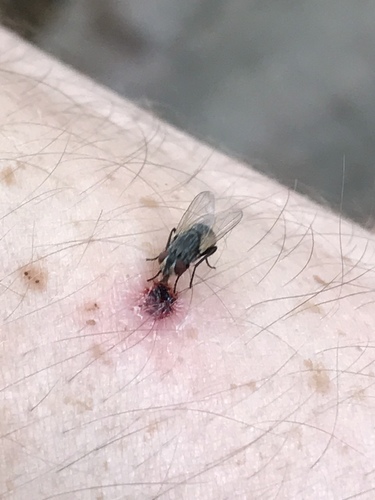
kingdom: Animalia
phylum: Arthropoda
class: Insecta
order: Diptera
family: Muscidae
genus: Musca
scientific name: Musca
